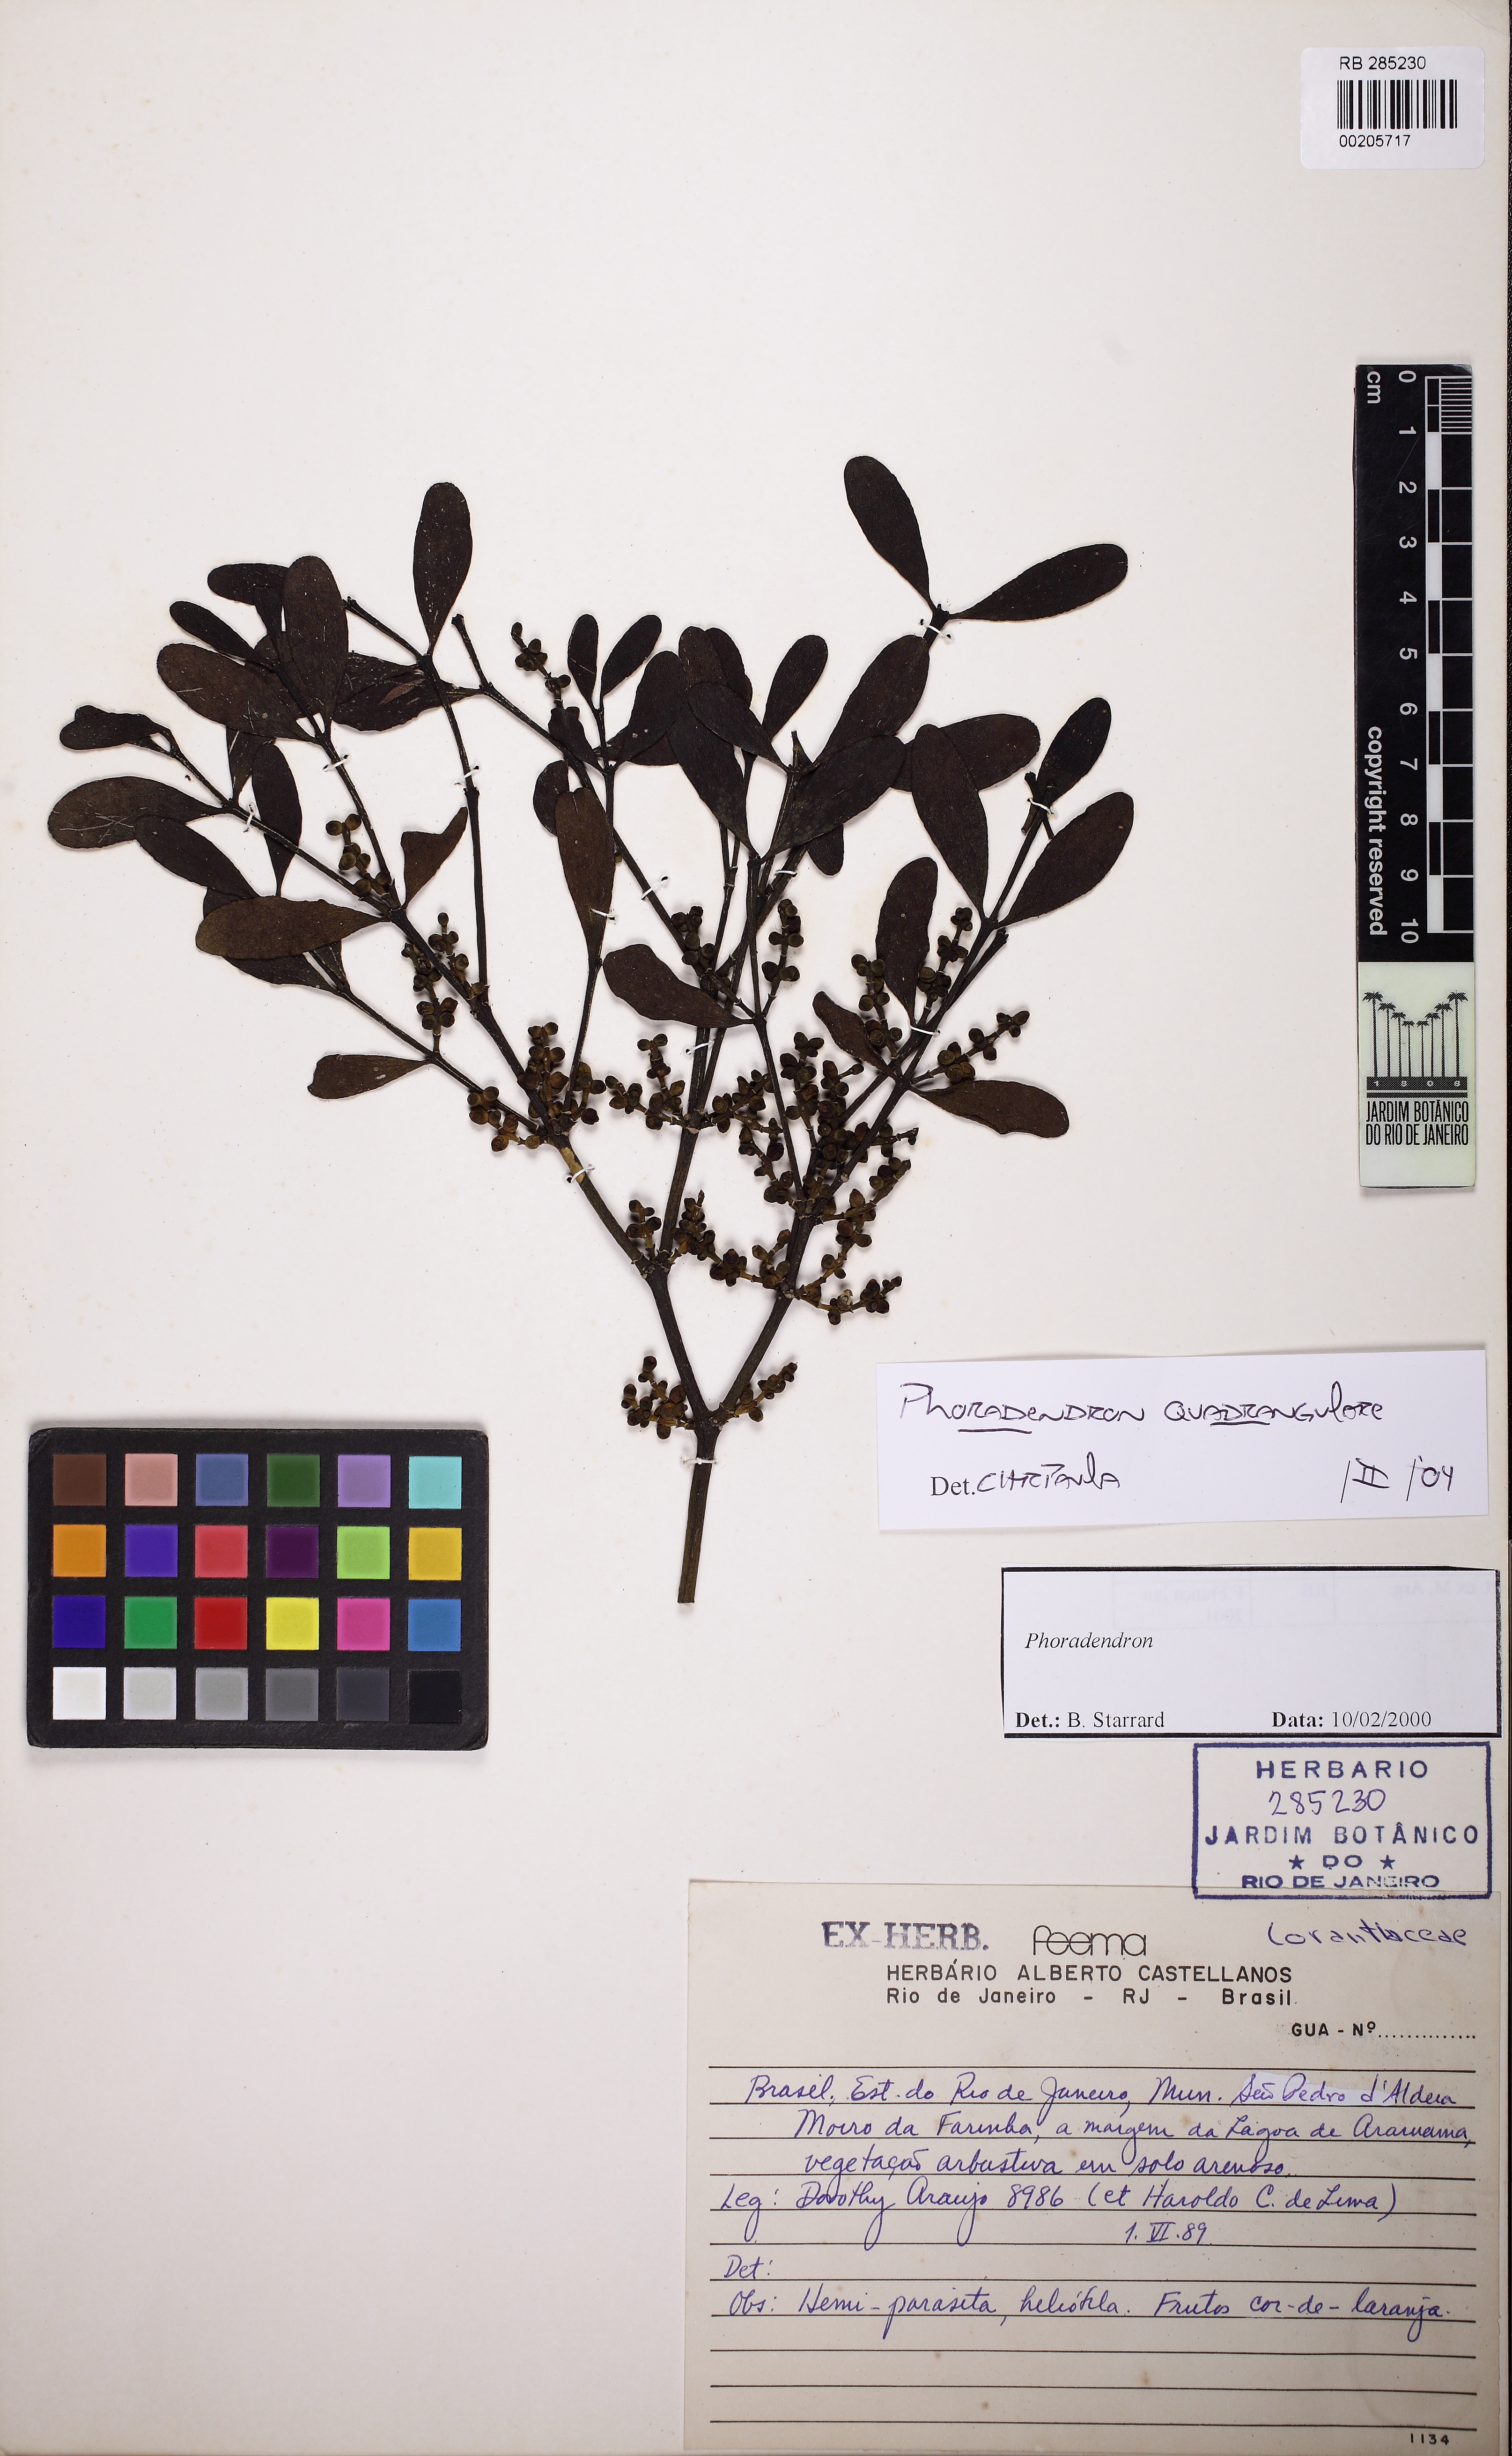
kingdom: Plantae
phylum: Tracheophyta
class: Magnoliopsida
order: Santalales
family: Viscaceae
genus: Phoradendron
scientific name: Phoradendron quadrangulare
